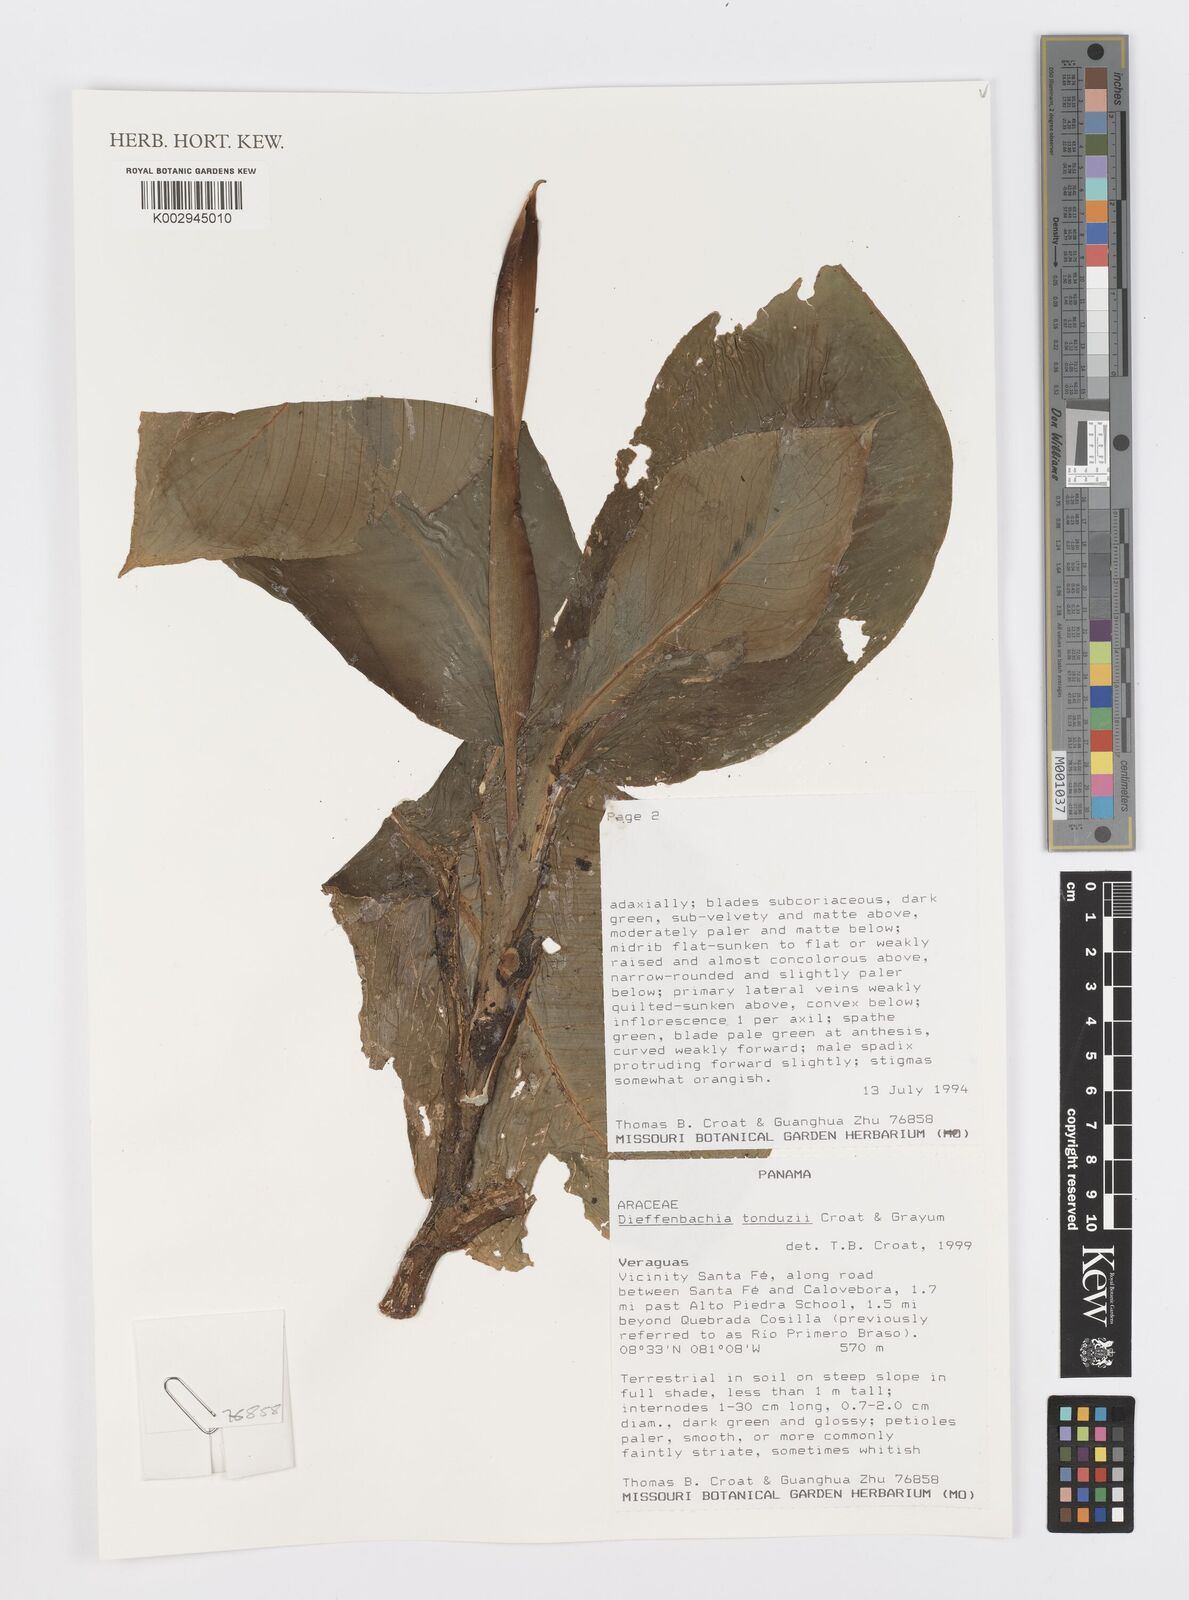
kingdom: Plantae
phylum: Tracheophyta
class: Liliopsida
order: Alismatales
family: Araceae
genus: Dieffenbachia
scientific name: Dieffenbachia tonduzii
